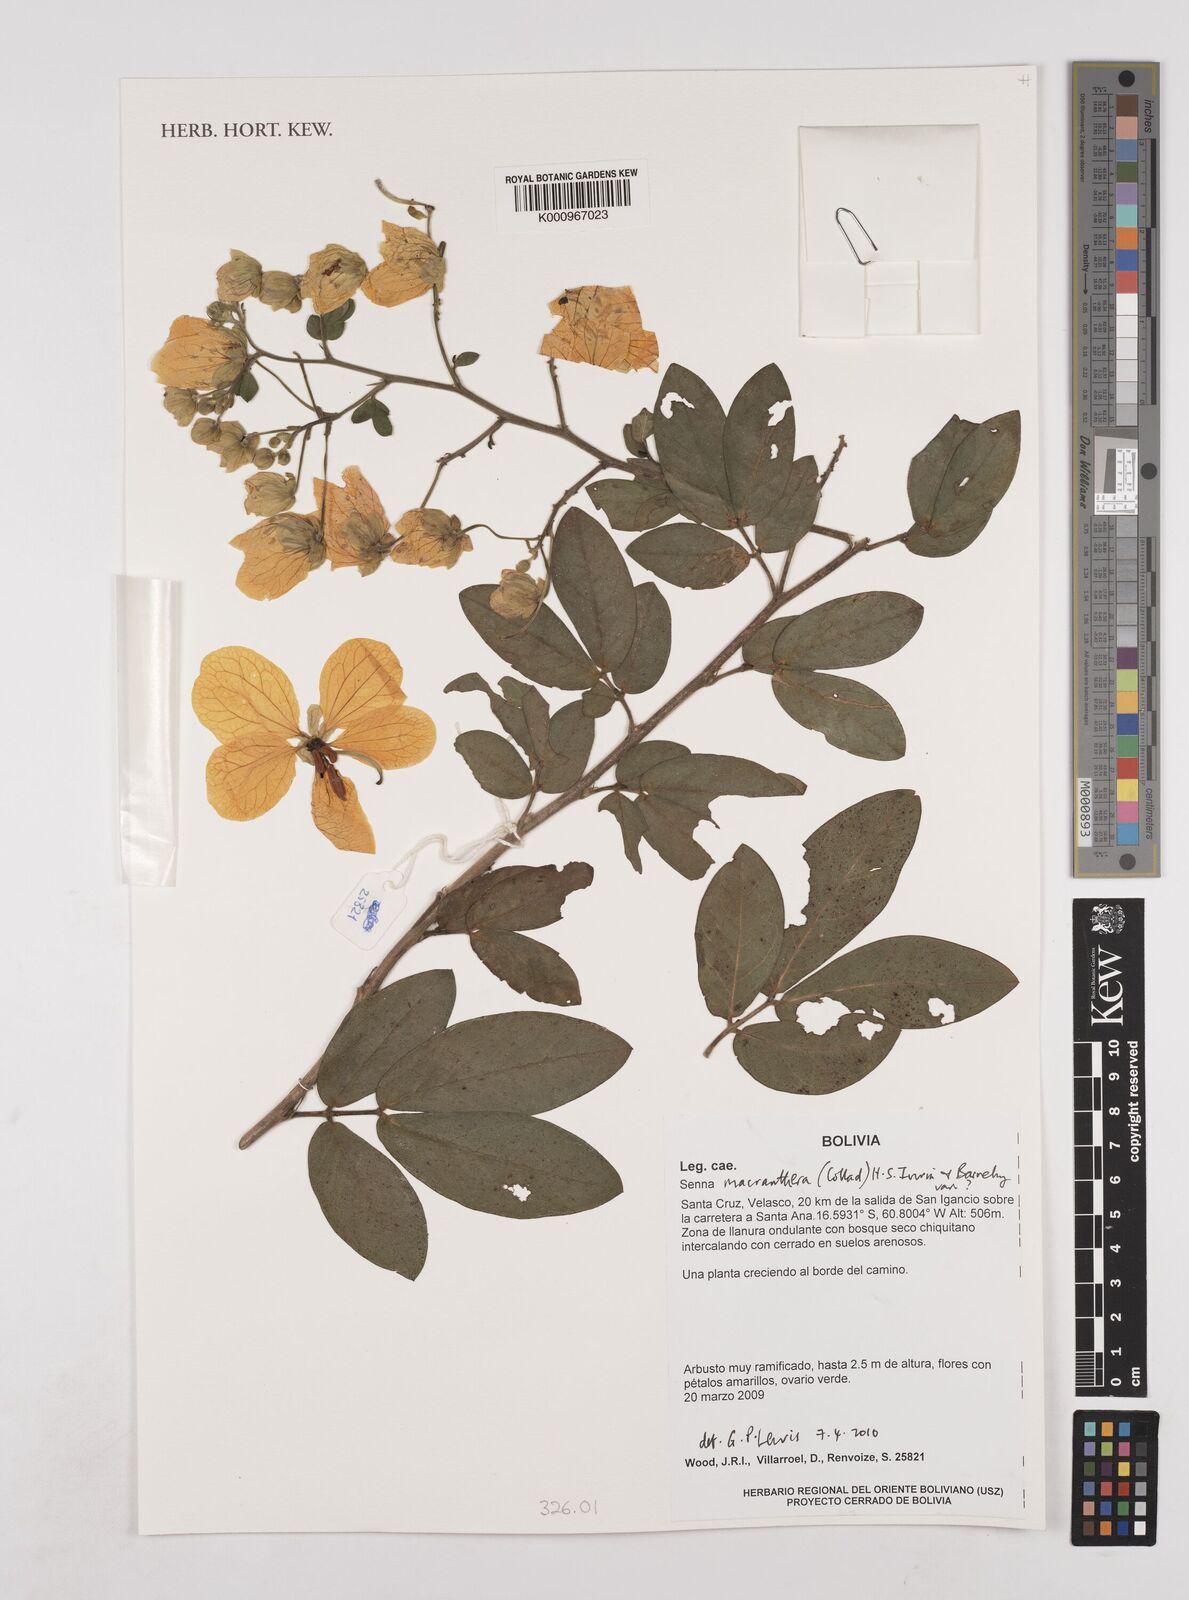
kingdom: Plantae
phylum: Tracheophyta
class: Magnoliopsida
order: Fabales
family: Fabaceae
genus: Senna
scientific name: Senna macranthera
